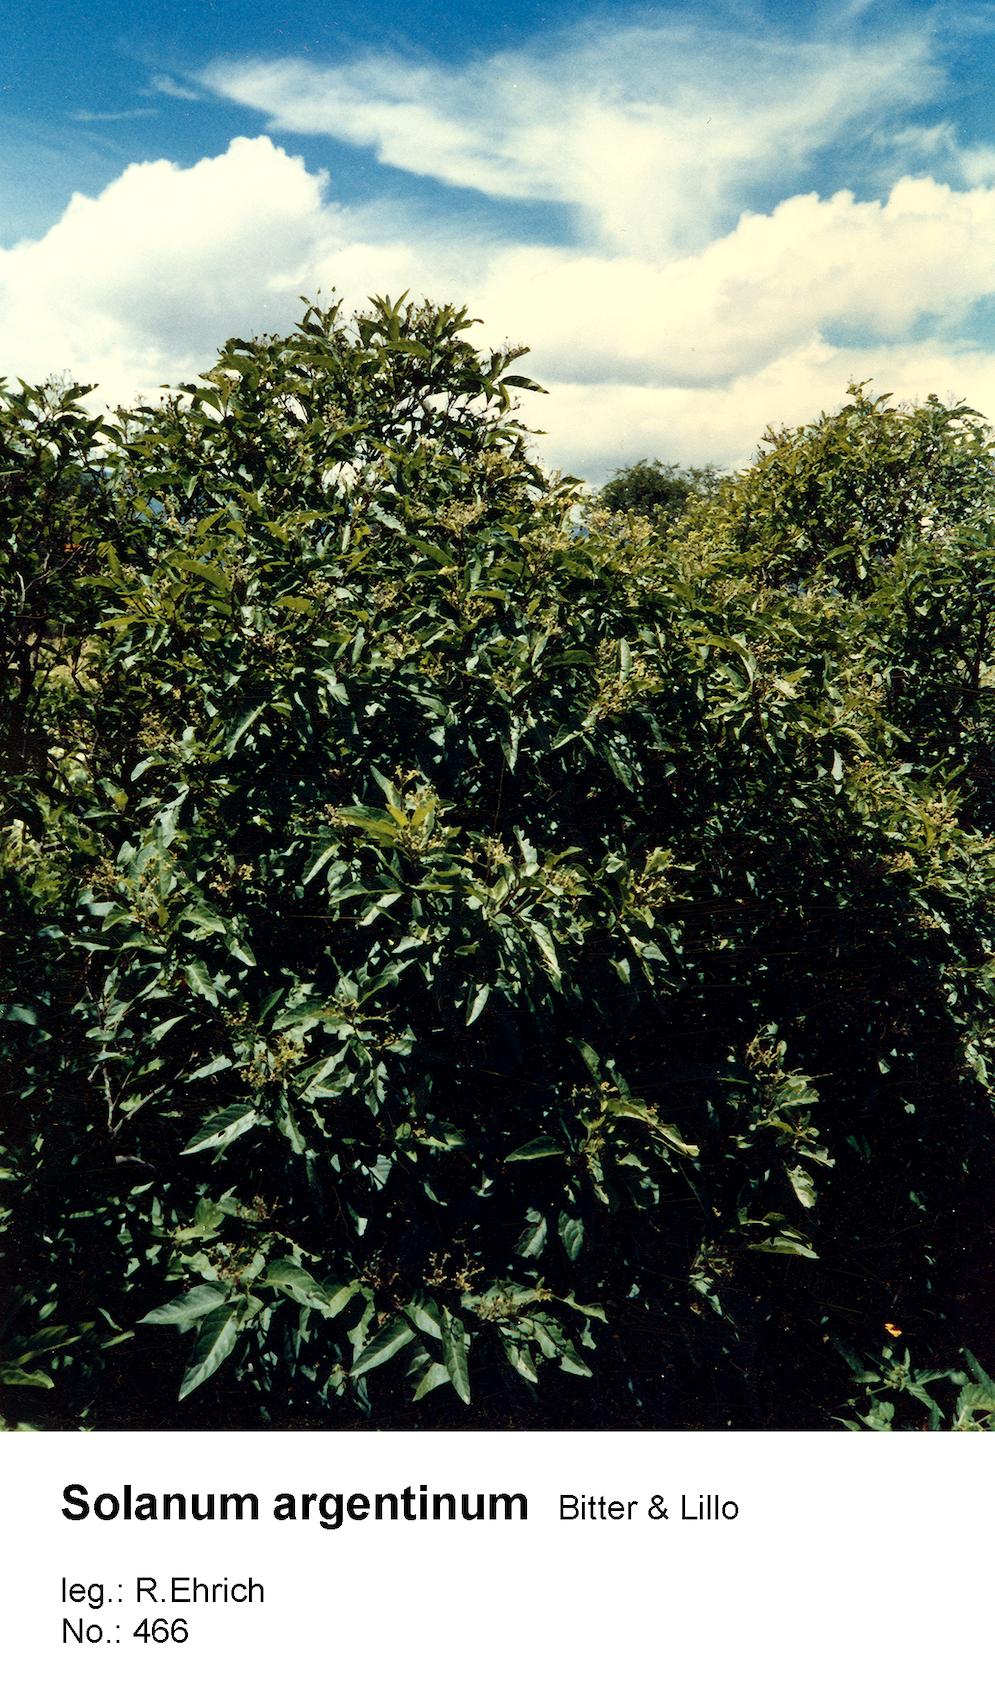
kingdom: Plantae
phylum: Tracheophyta
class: Magnoliopsida
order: Solanales
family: Solanaceae
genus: Solanum
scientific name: Solanum argentinum
